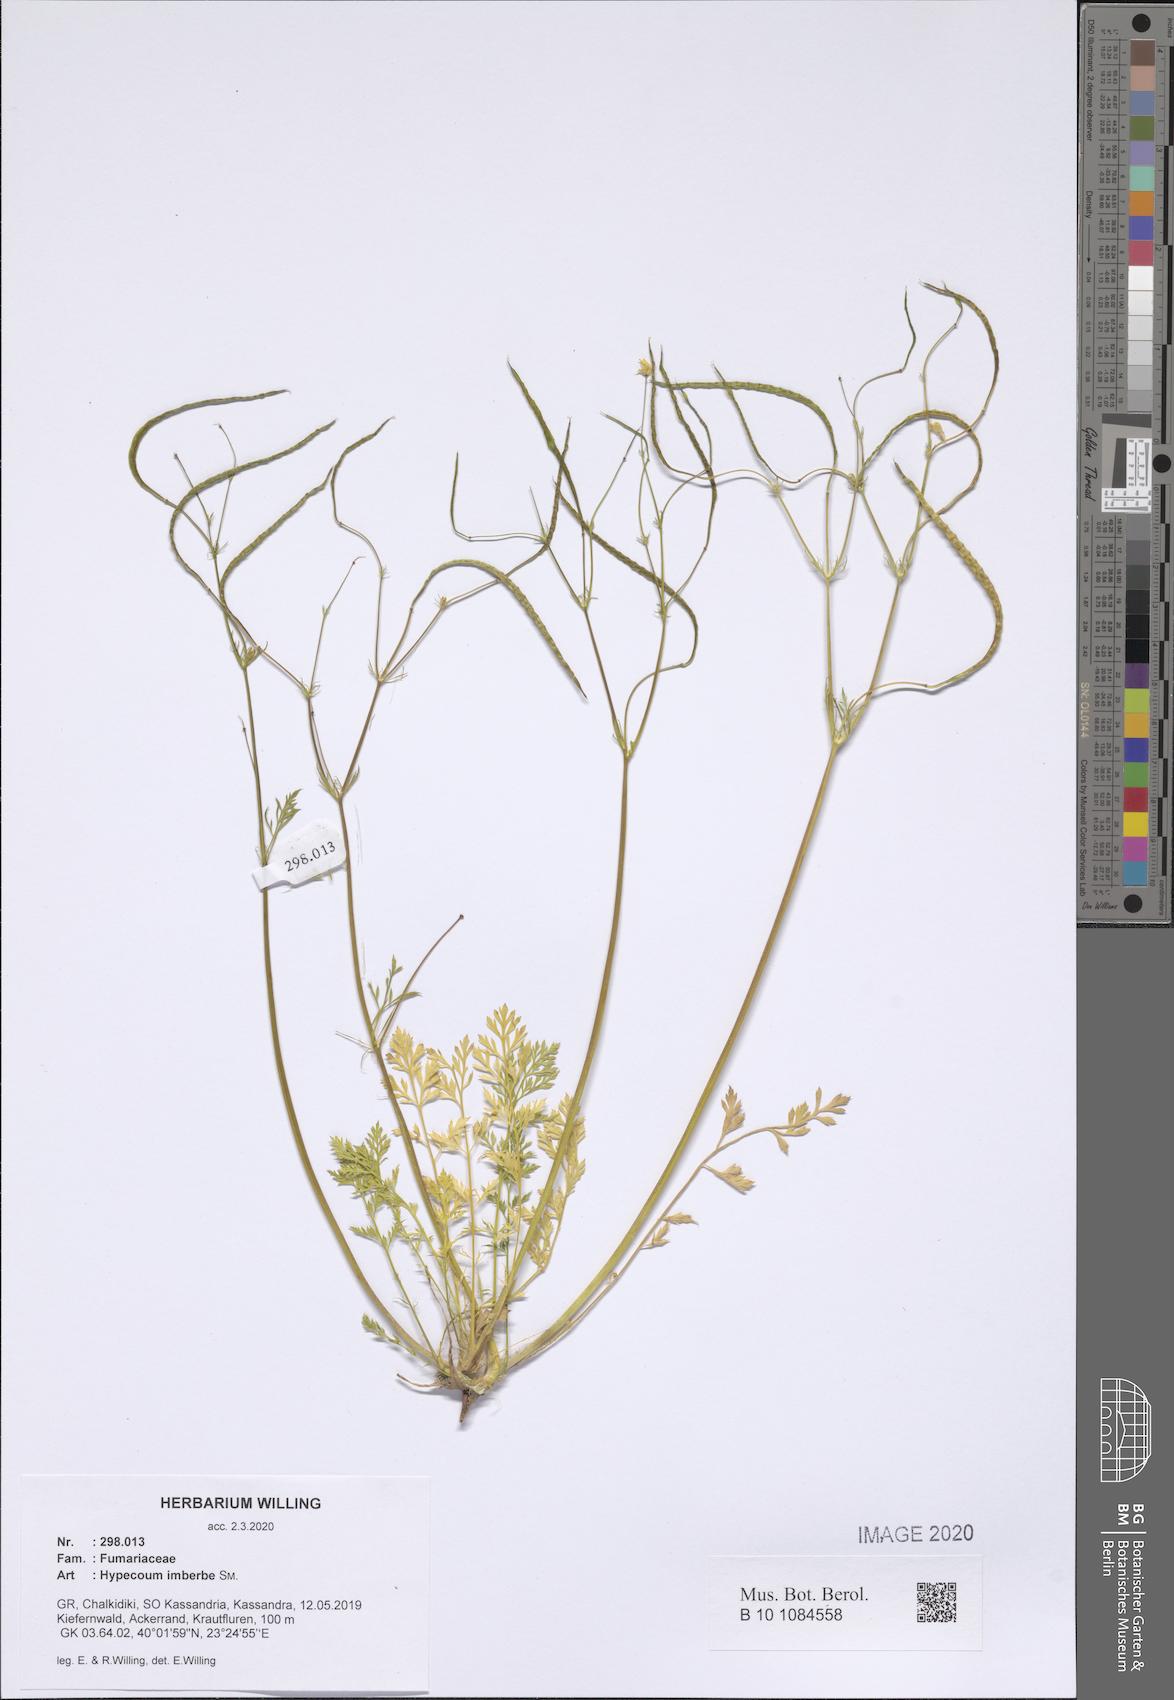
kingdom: Plantae
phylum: Tracheophyta
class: Magnoliopsida
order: Ranunculales
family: Papaveraceae
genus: Hypecoum
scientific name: Hypecoum imberbe
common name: Sicklefruit hypecoum
